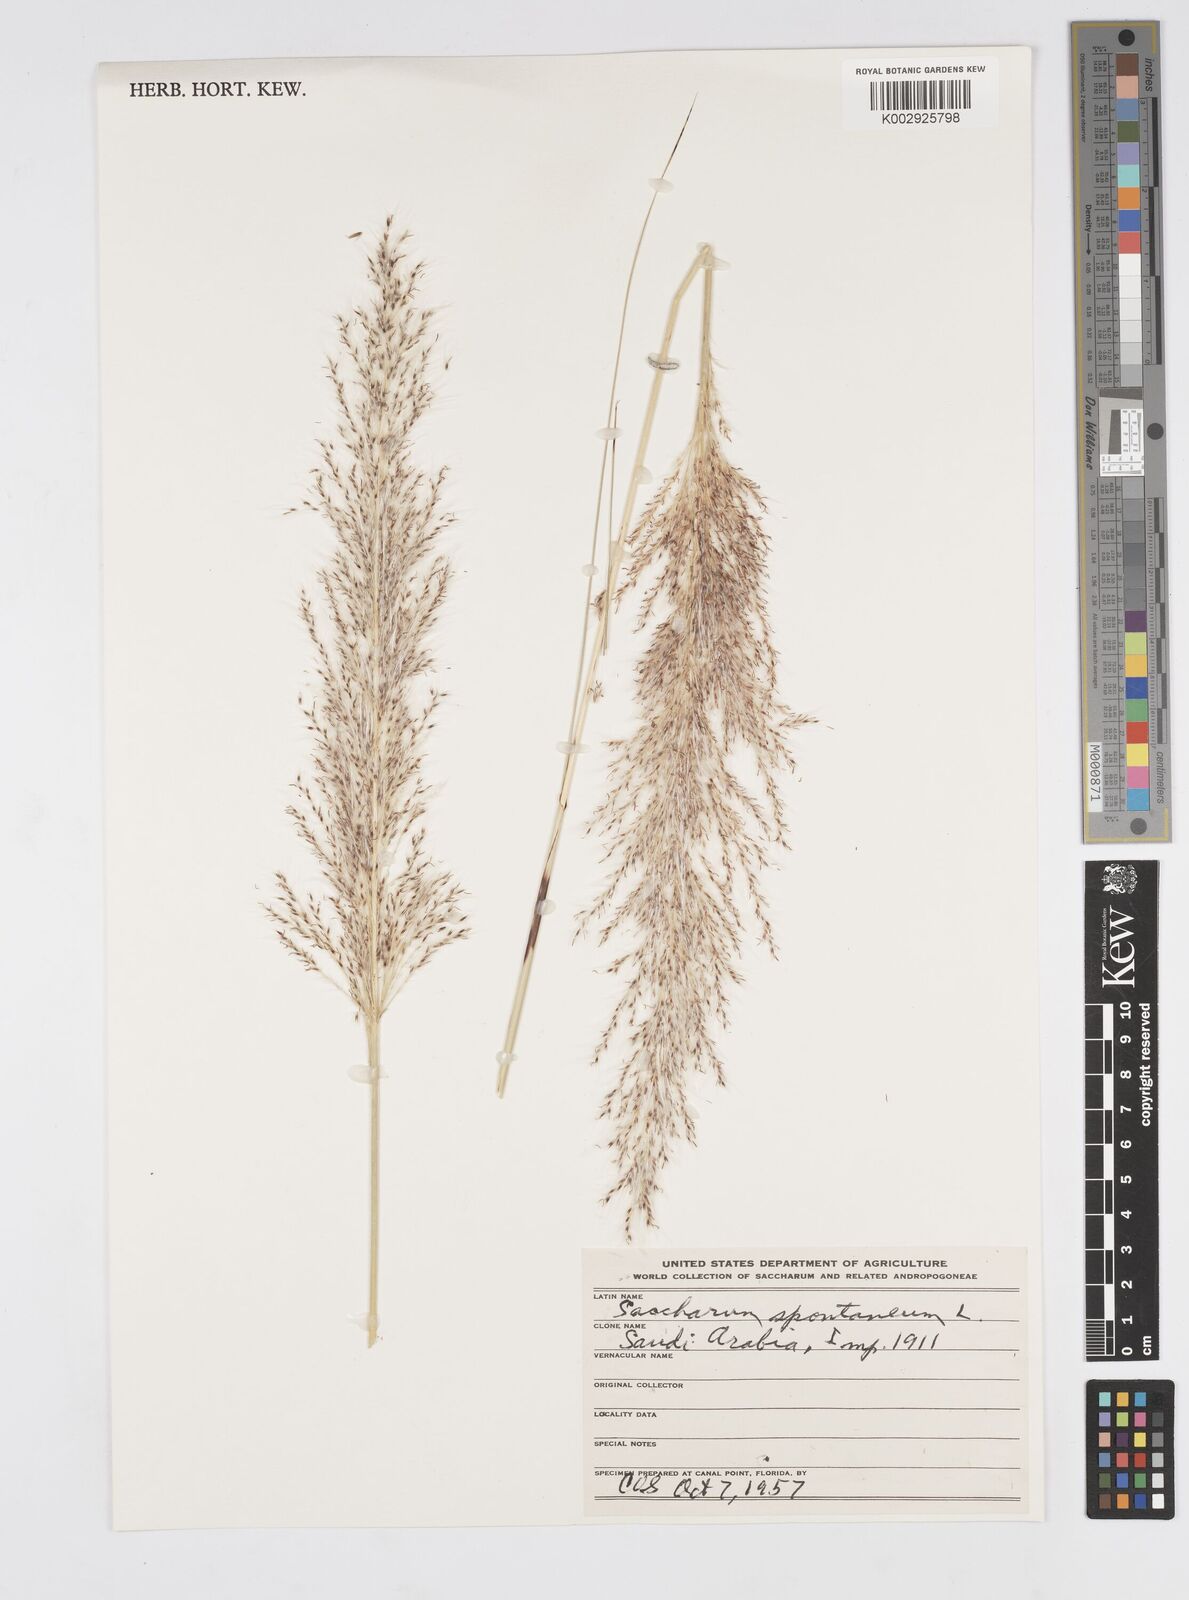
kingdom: Plantae
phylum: Tracheophyta
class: Liliopsida
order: Poales
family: Poaceae
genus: Saccharum
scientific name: Saccharum spontaneum
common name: Wild sugarcane
